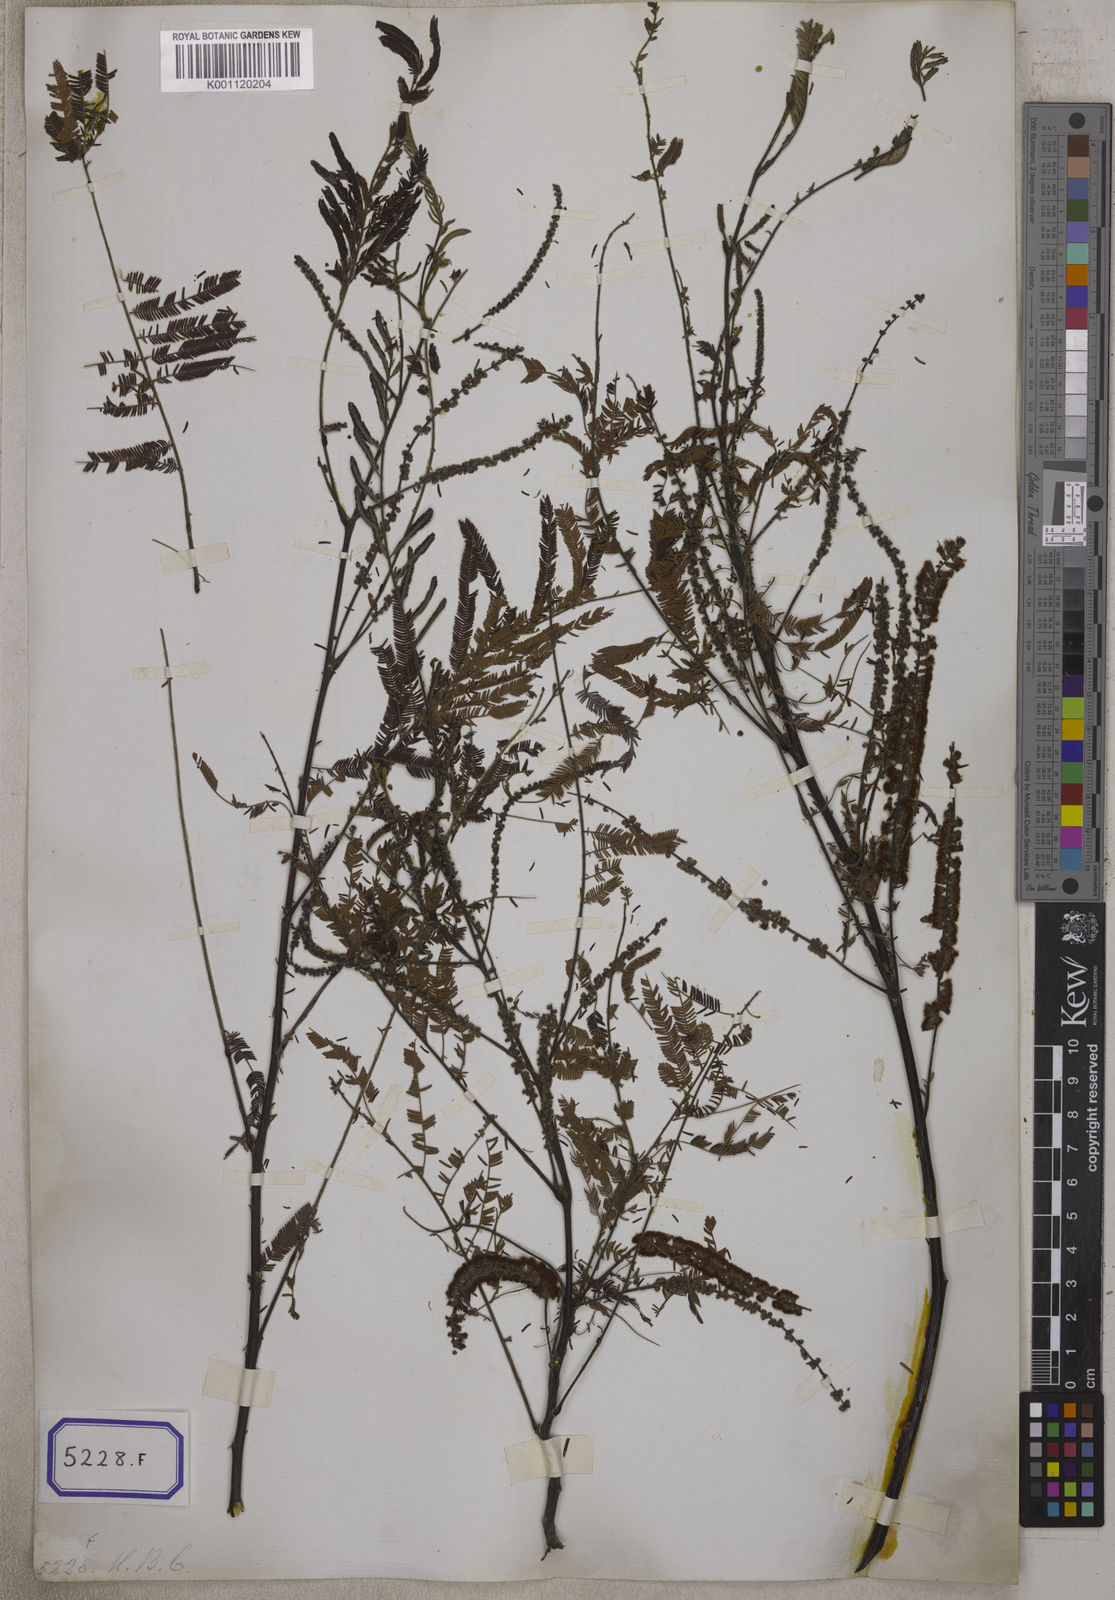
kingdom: Plantae
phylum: Tracheophyta
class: Magnoliopsida
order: Fabales
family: Fabaceae
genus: Senegalia
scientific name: Senegalia catechu
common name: Black cutch
